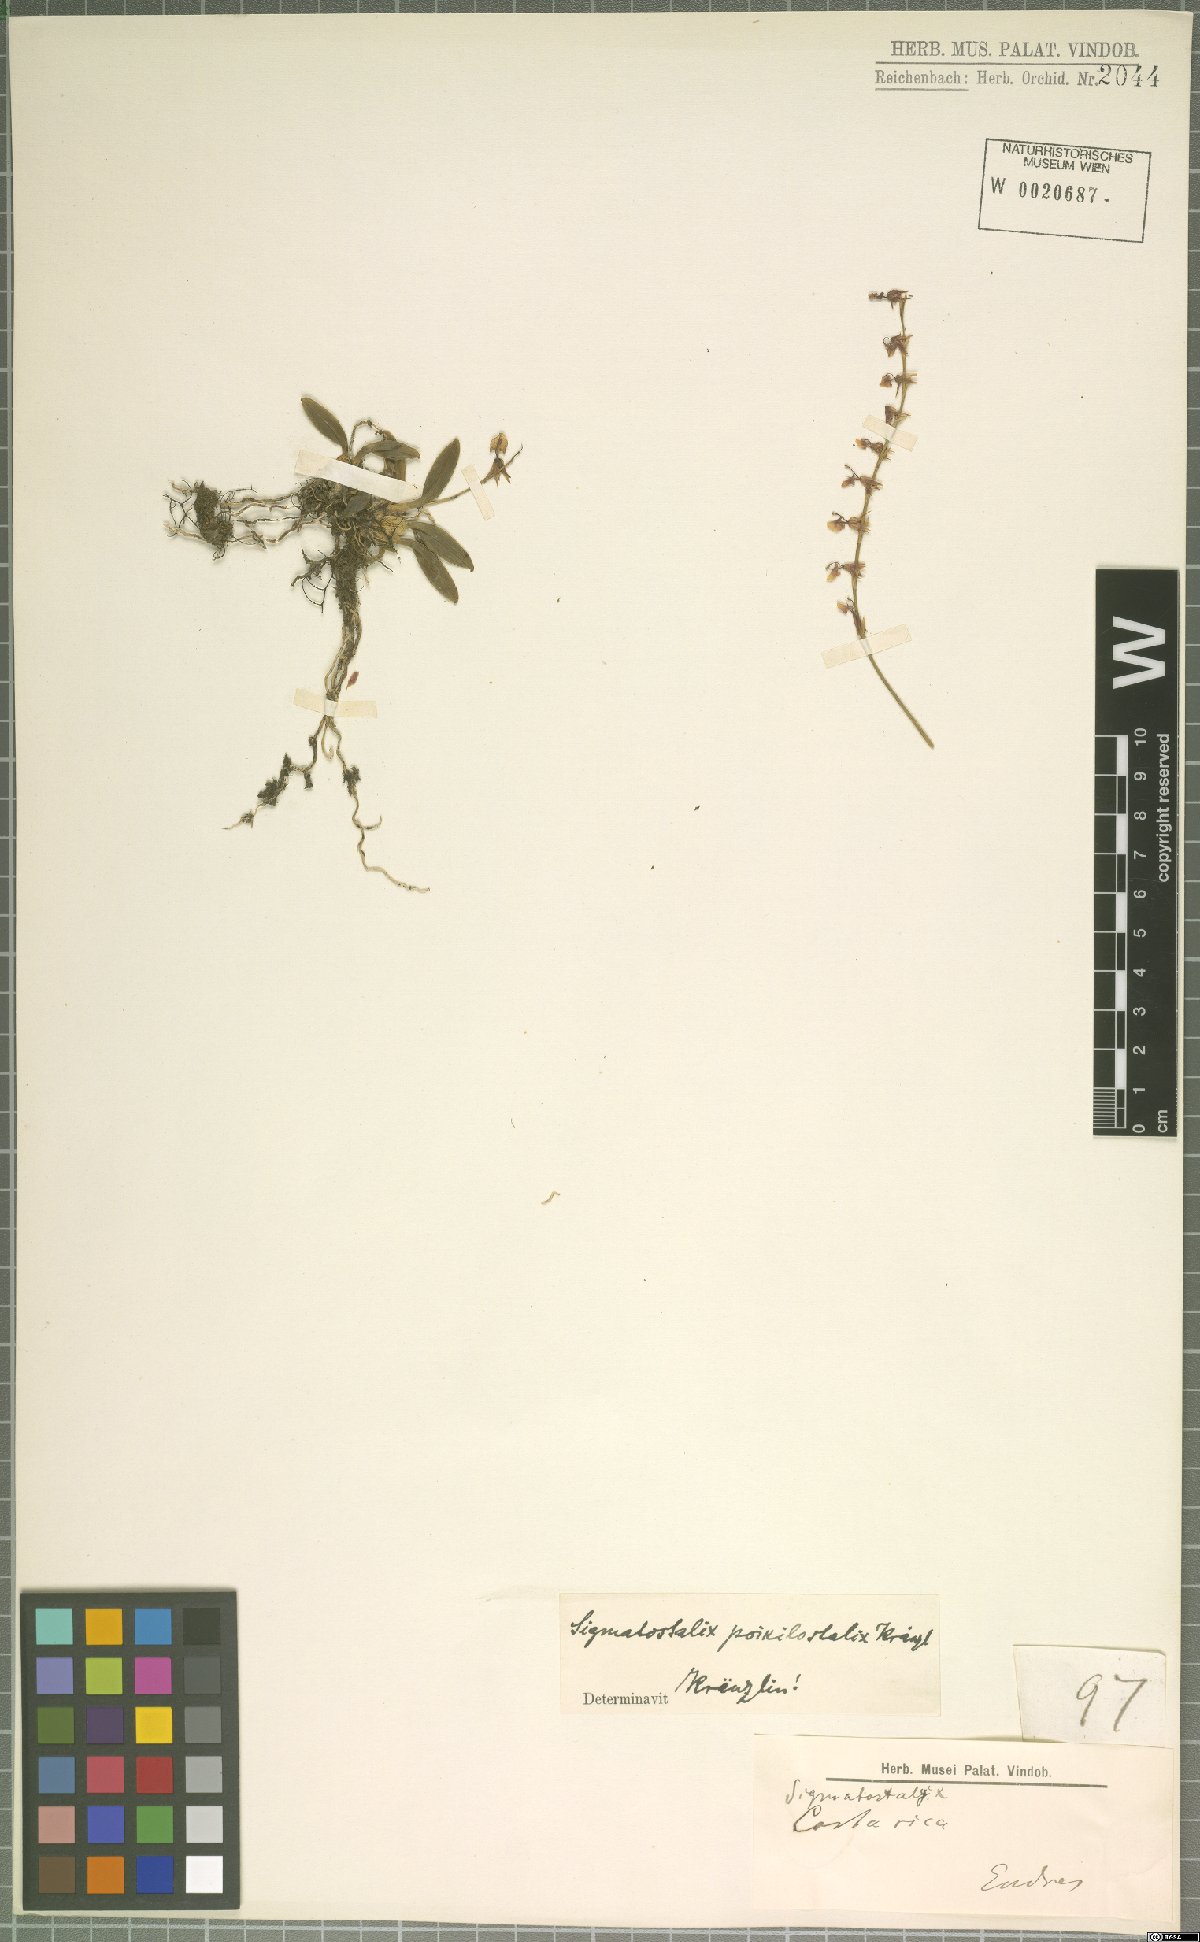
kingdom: Plantae
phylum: Tracheophyta
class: Liliopsida
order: Asparagales
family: Orchidaceae
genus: Oncidium
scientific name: Oncidium poikilostalix
